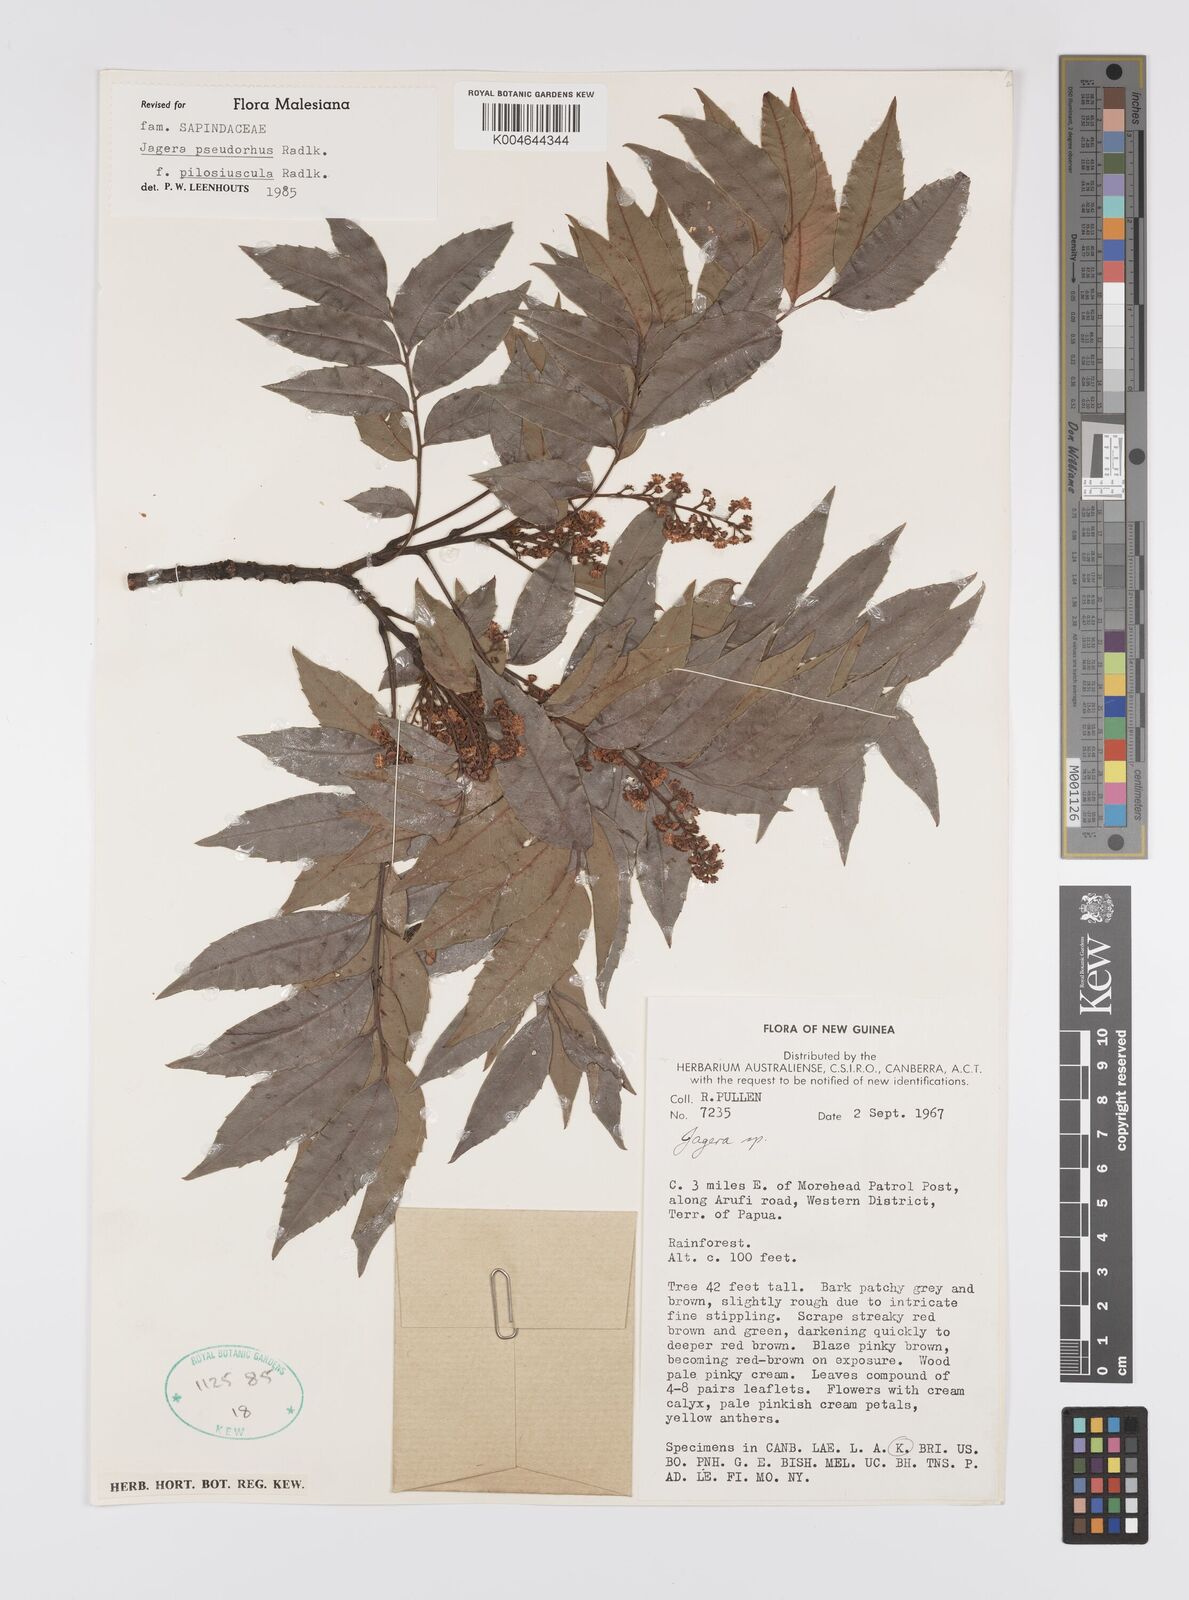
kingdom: Plantae
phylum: Tracheophyta
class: Magnoliopsida
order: Sapindales
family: Sapindaceae
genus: Jagera
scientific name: Jagera pseudorhus
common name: Fern-leaf-tamarind
